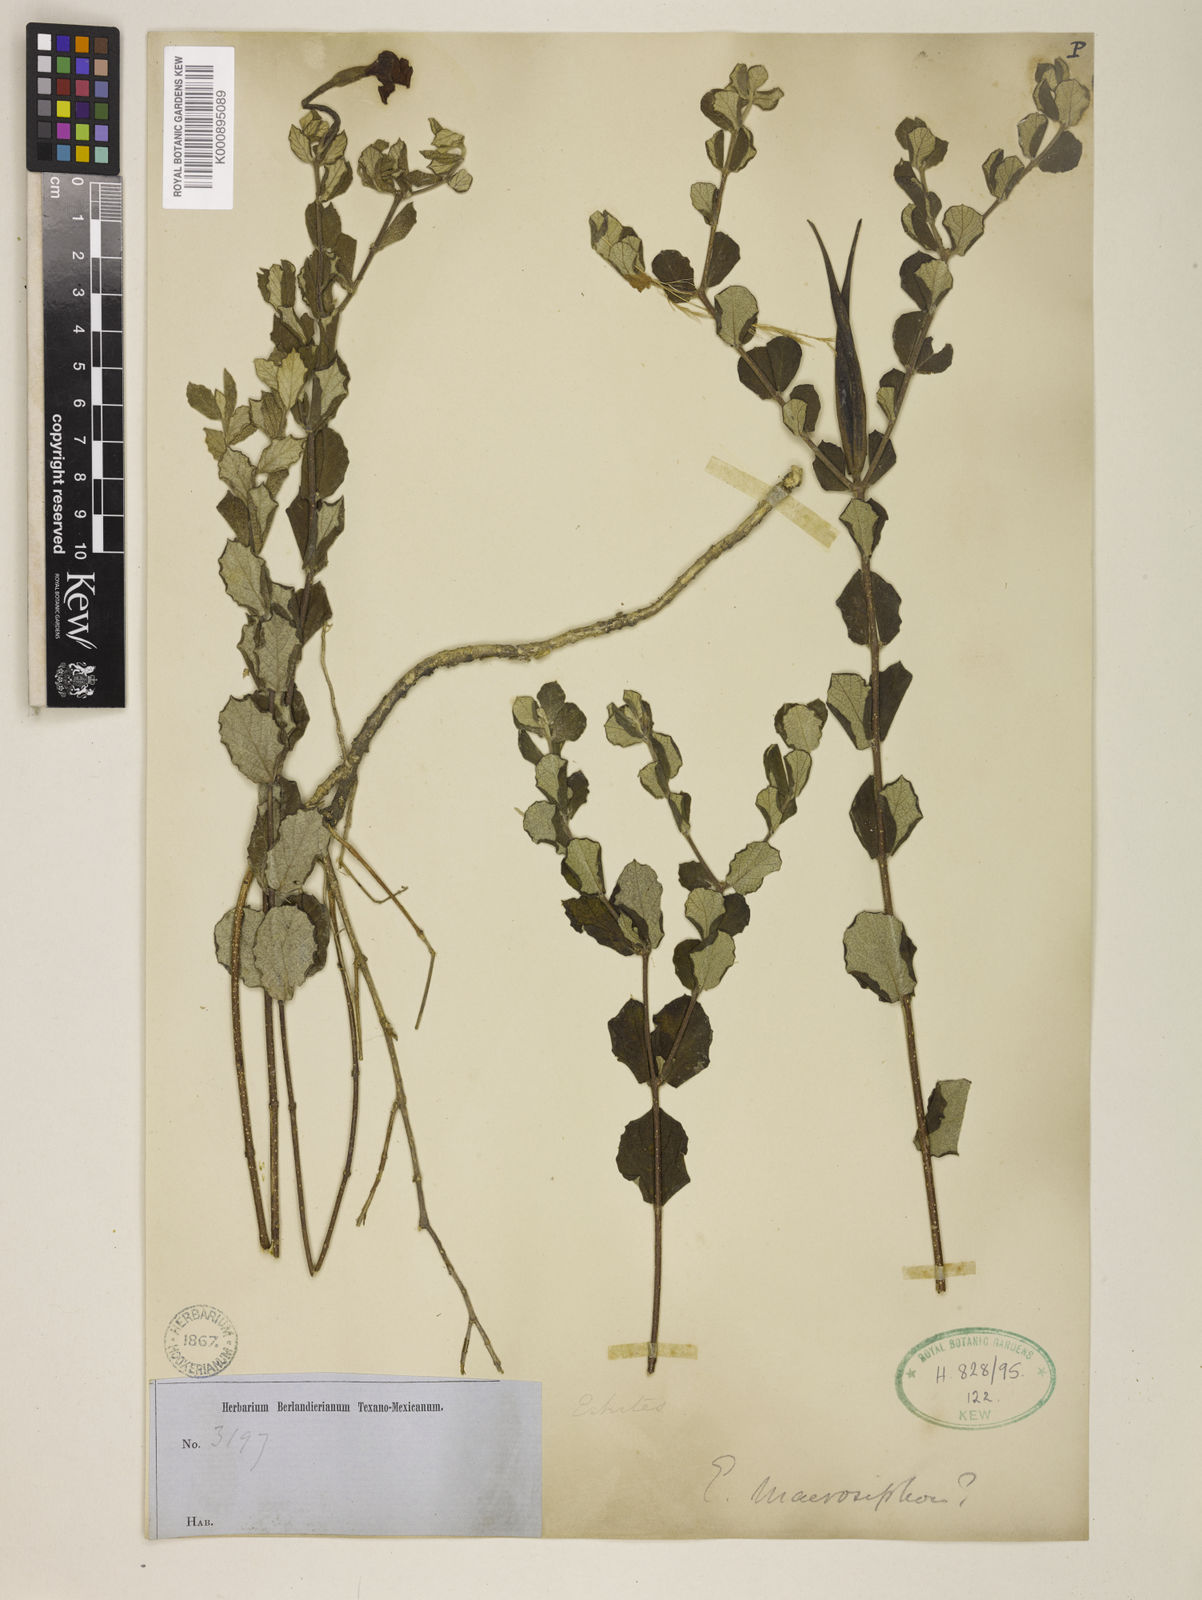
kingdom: Plantae
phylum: Tracheophyta
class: Magnoliopsida
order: Gentianales
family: Apocynaceae
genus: Mandevilla
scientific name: Mandevilla macrosiphon
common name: Plateau rocktrumpet
